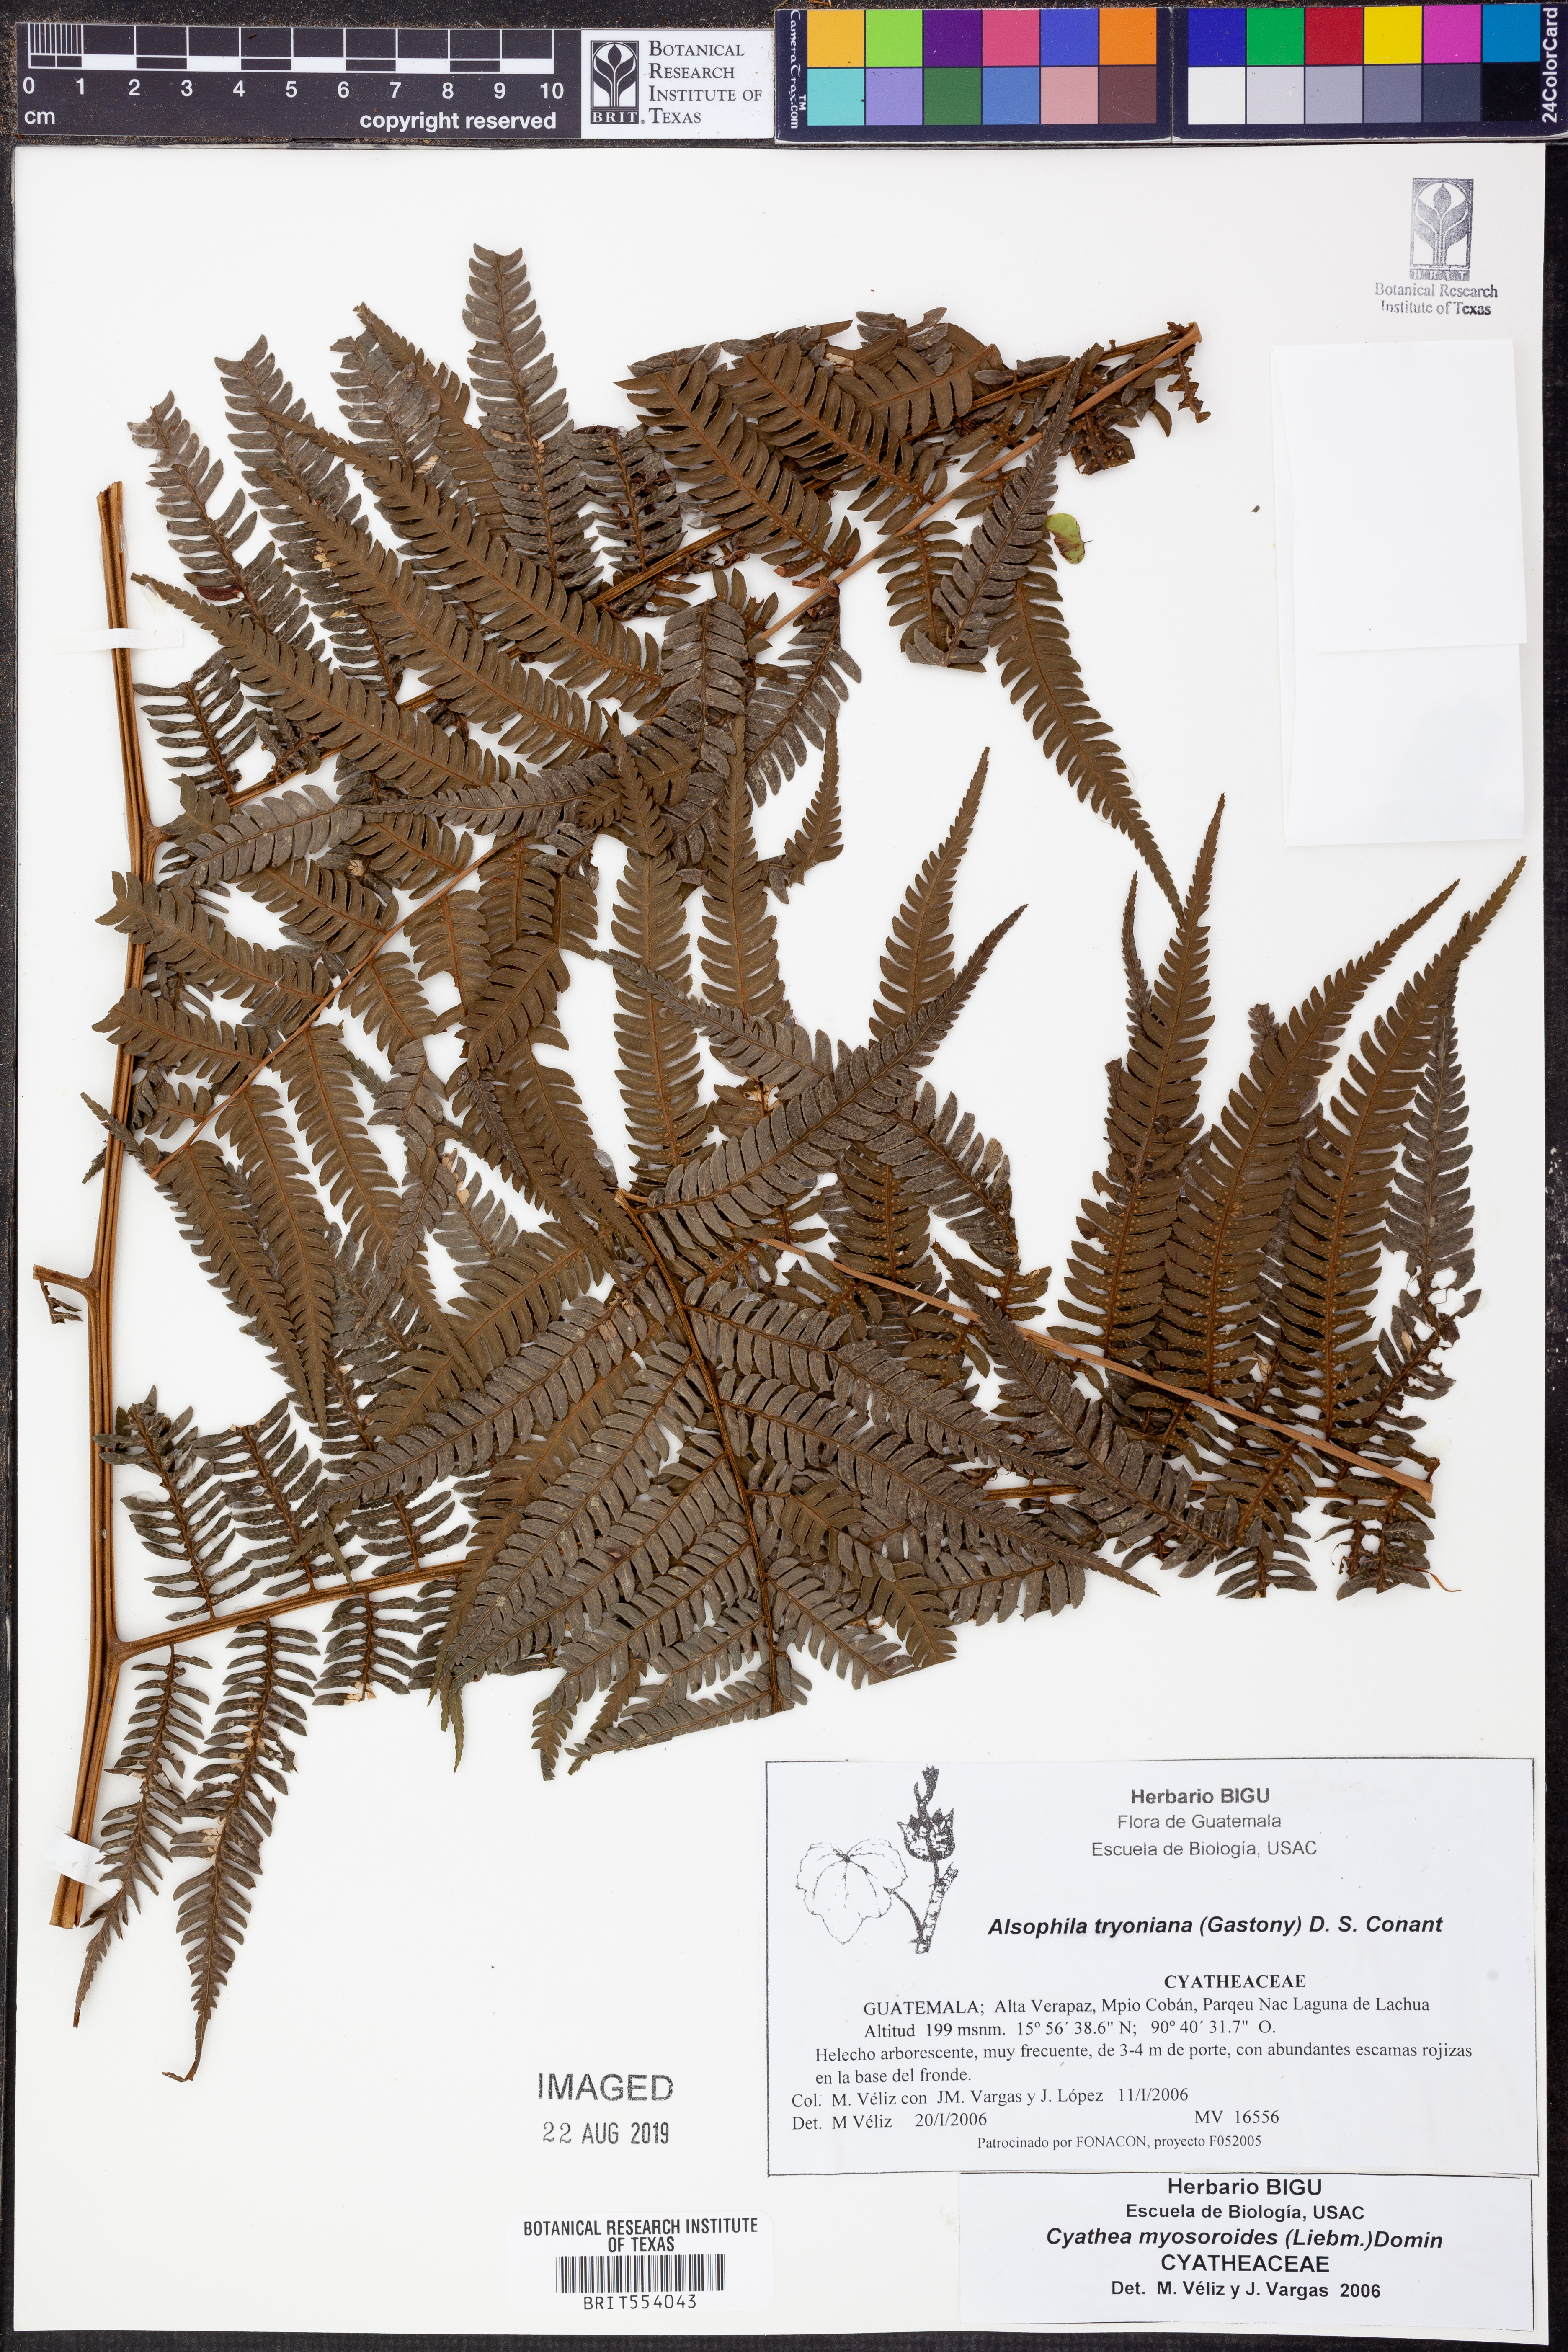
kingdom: Plantae
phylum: Tracheophyta
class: Polypodiopsida
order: Cyatheales
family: Cyatheaceae
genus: Alsophila
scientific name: Alsophila tryoniana
